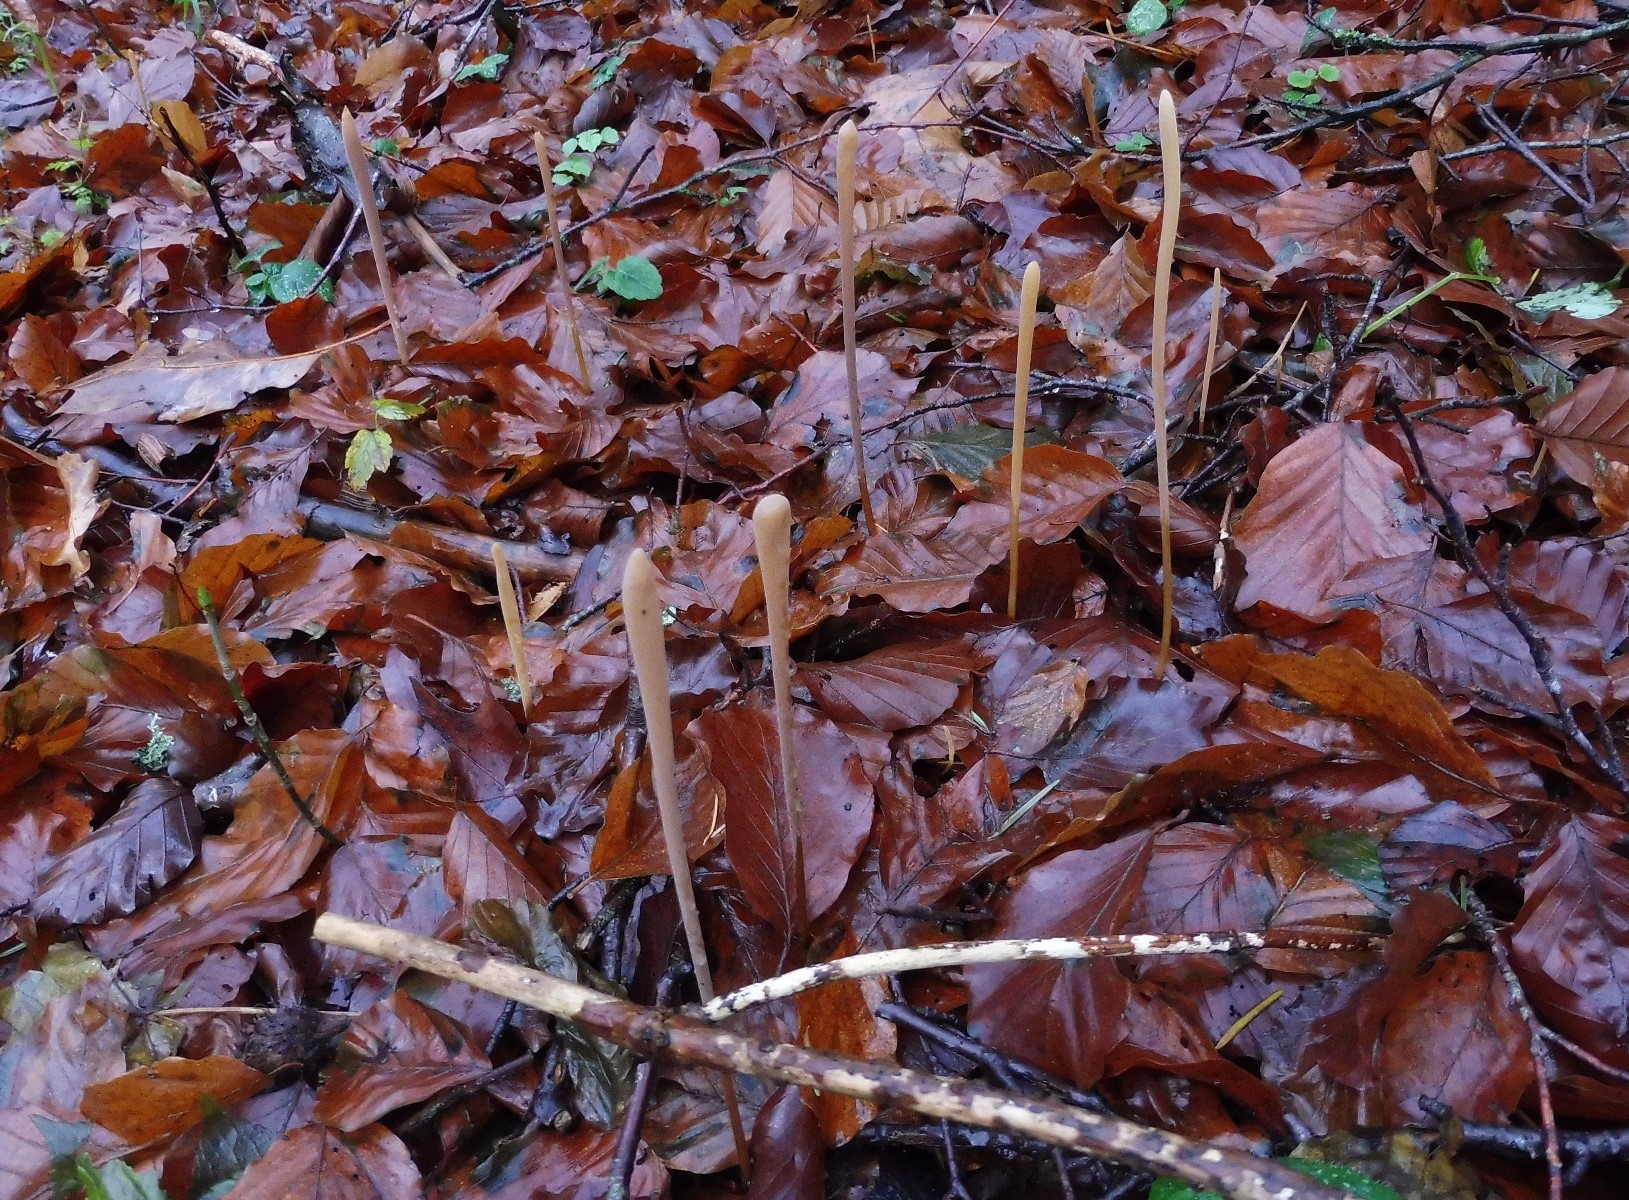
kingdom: Fungi
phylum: Basidiomycota
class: Agaricomycetes
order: Agaricales
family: Typhulaceae
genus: Typhula
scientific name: Typhula fistulosa
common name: pibet rørkølle
